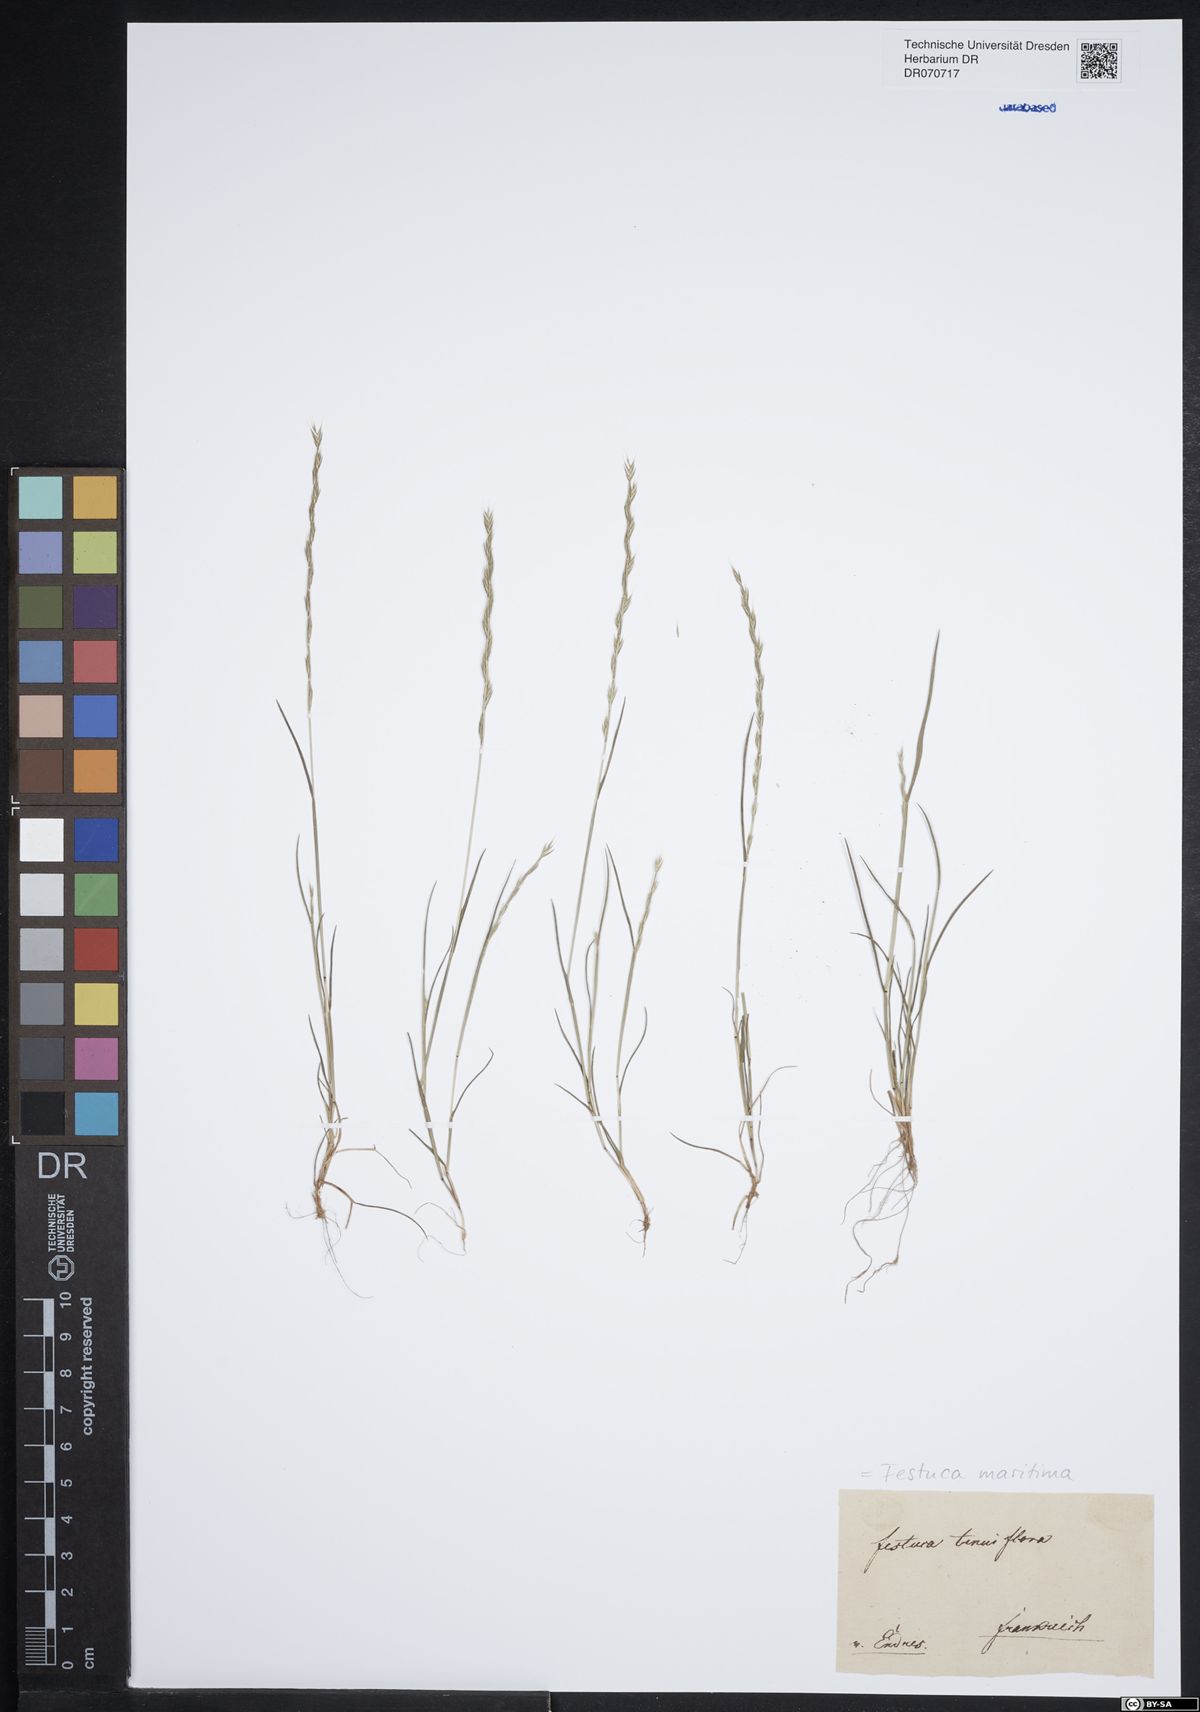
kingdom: Plantae
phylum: Tracheophyta
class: Liliopsida
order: Poales
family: Poaceae
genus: Festuca
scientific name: Festuca maritima
